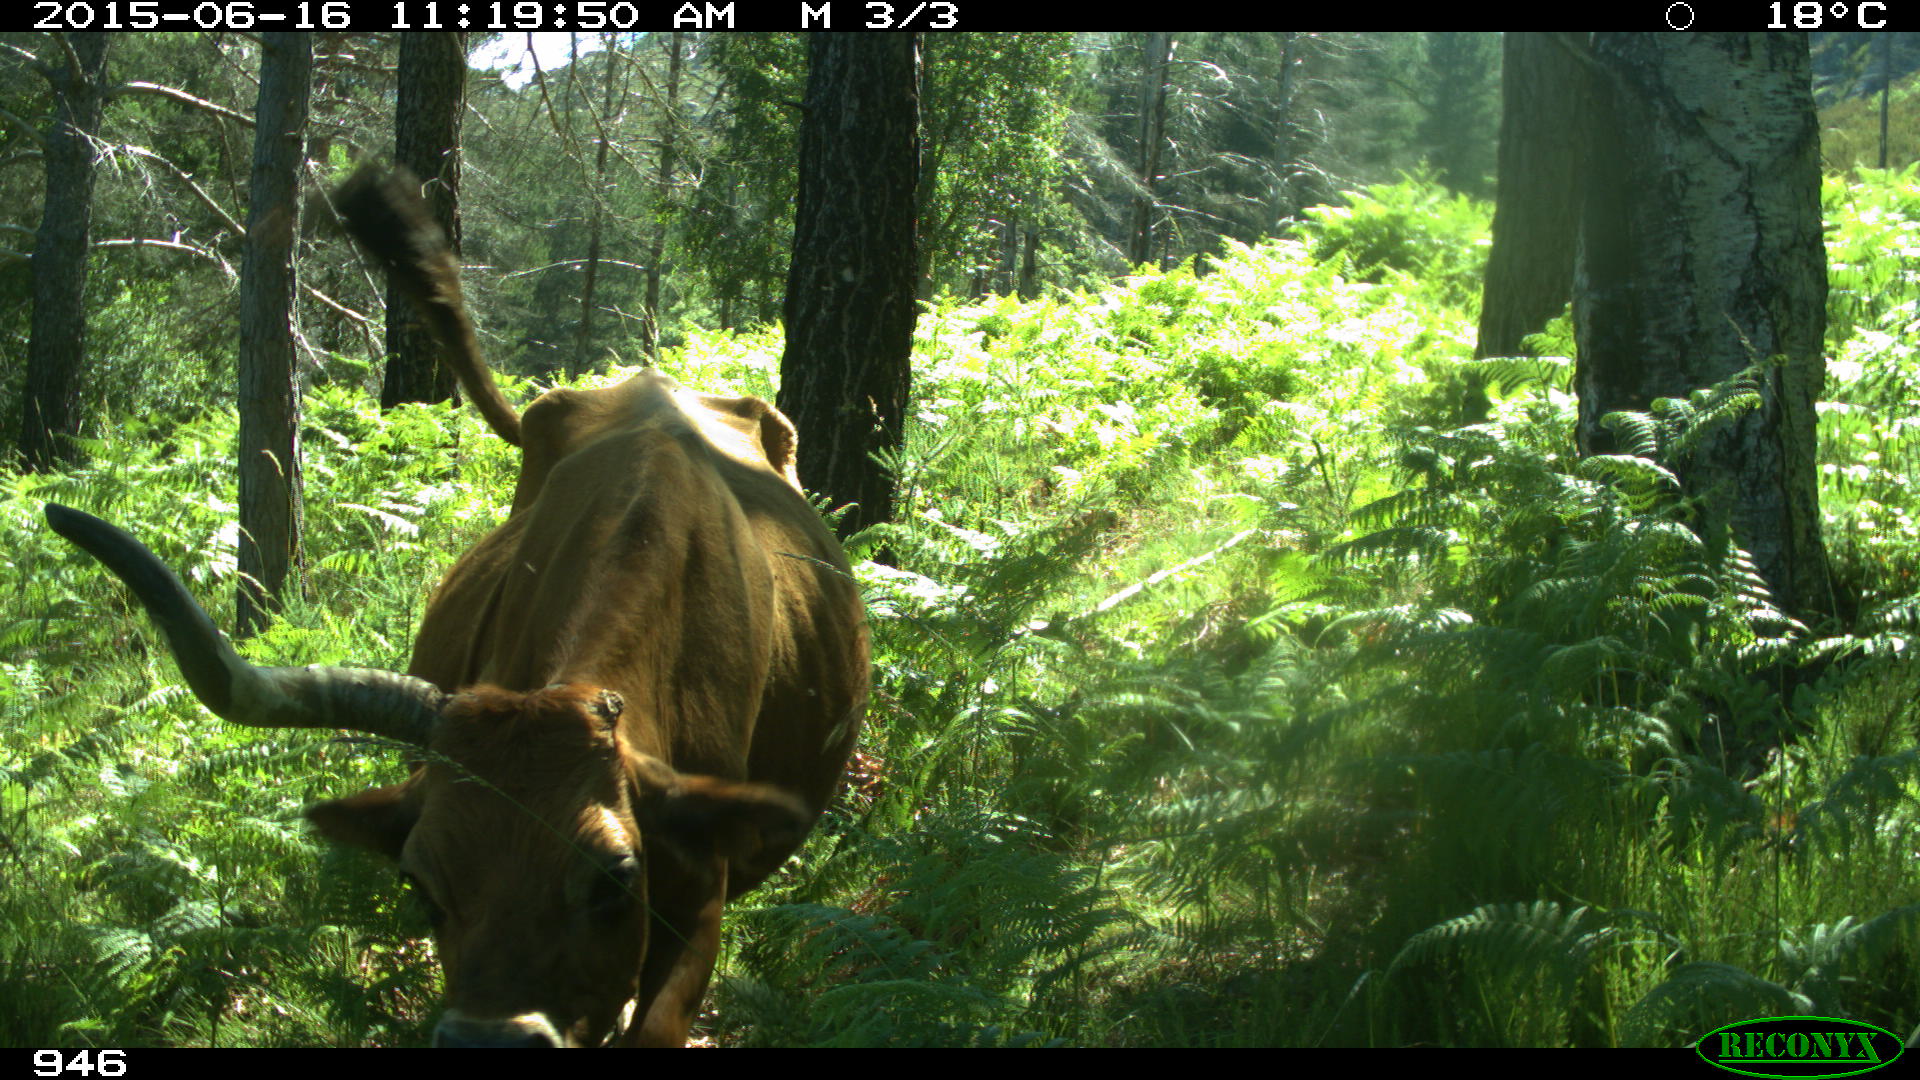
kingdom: Animalia
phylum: Chordata
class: Mammalia
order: Artiodactyla
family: Bovidae
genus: Bos
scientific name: Bos taurus
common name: Domesticated cattle
